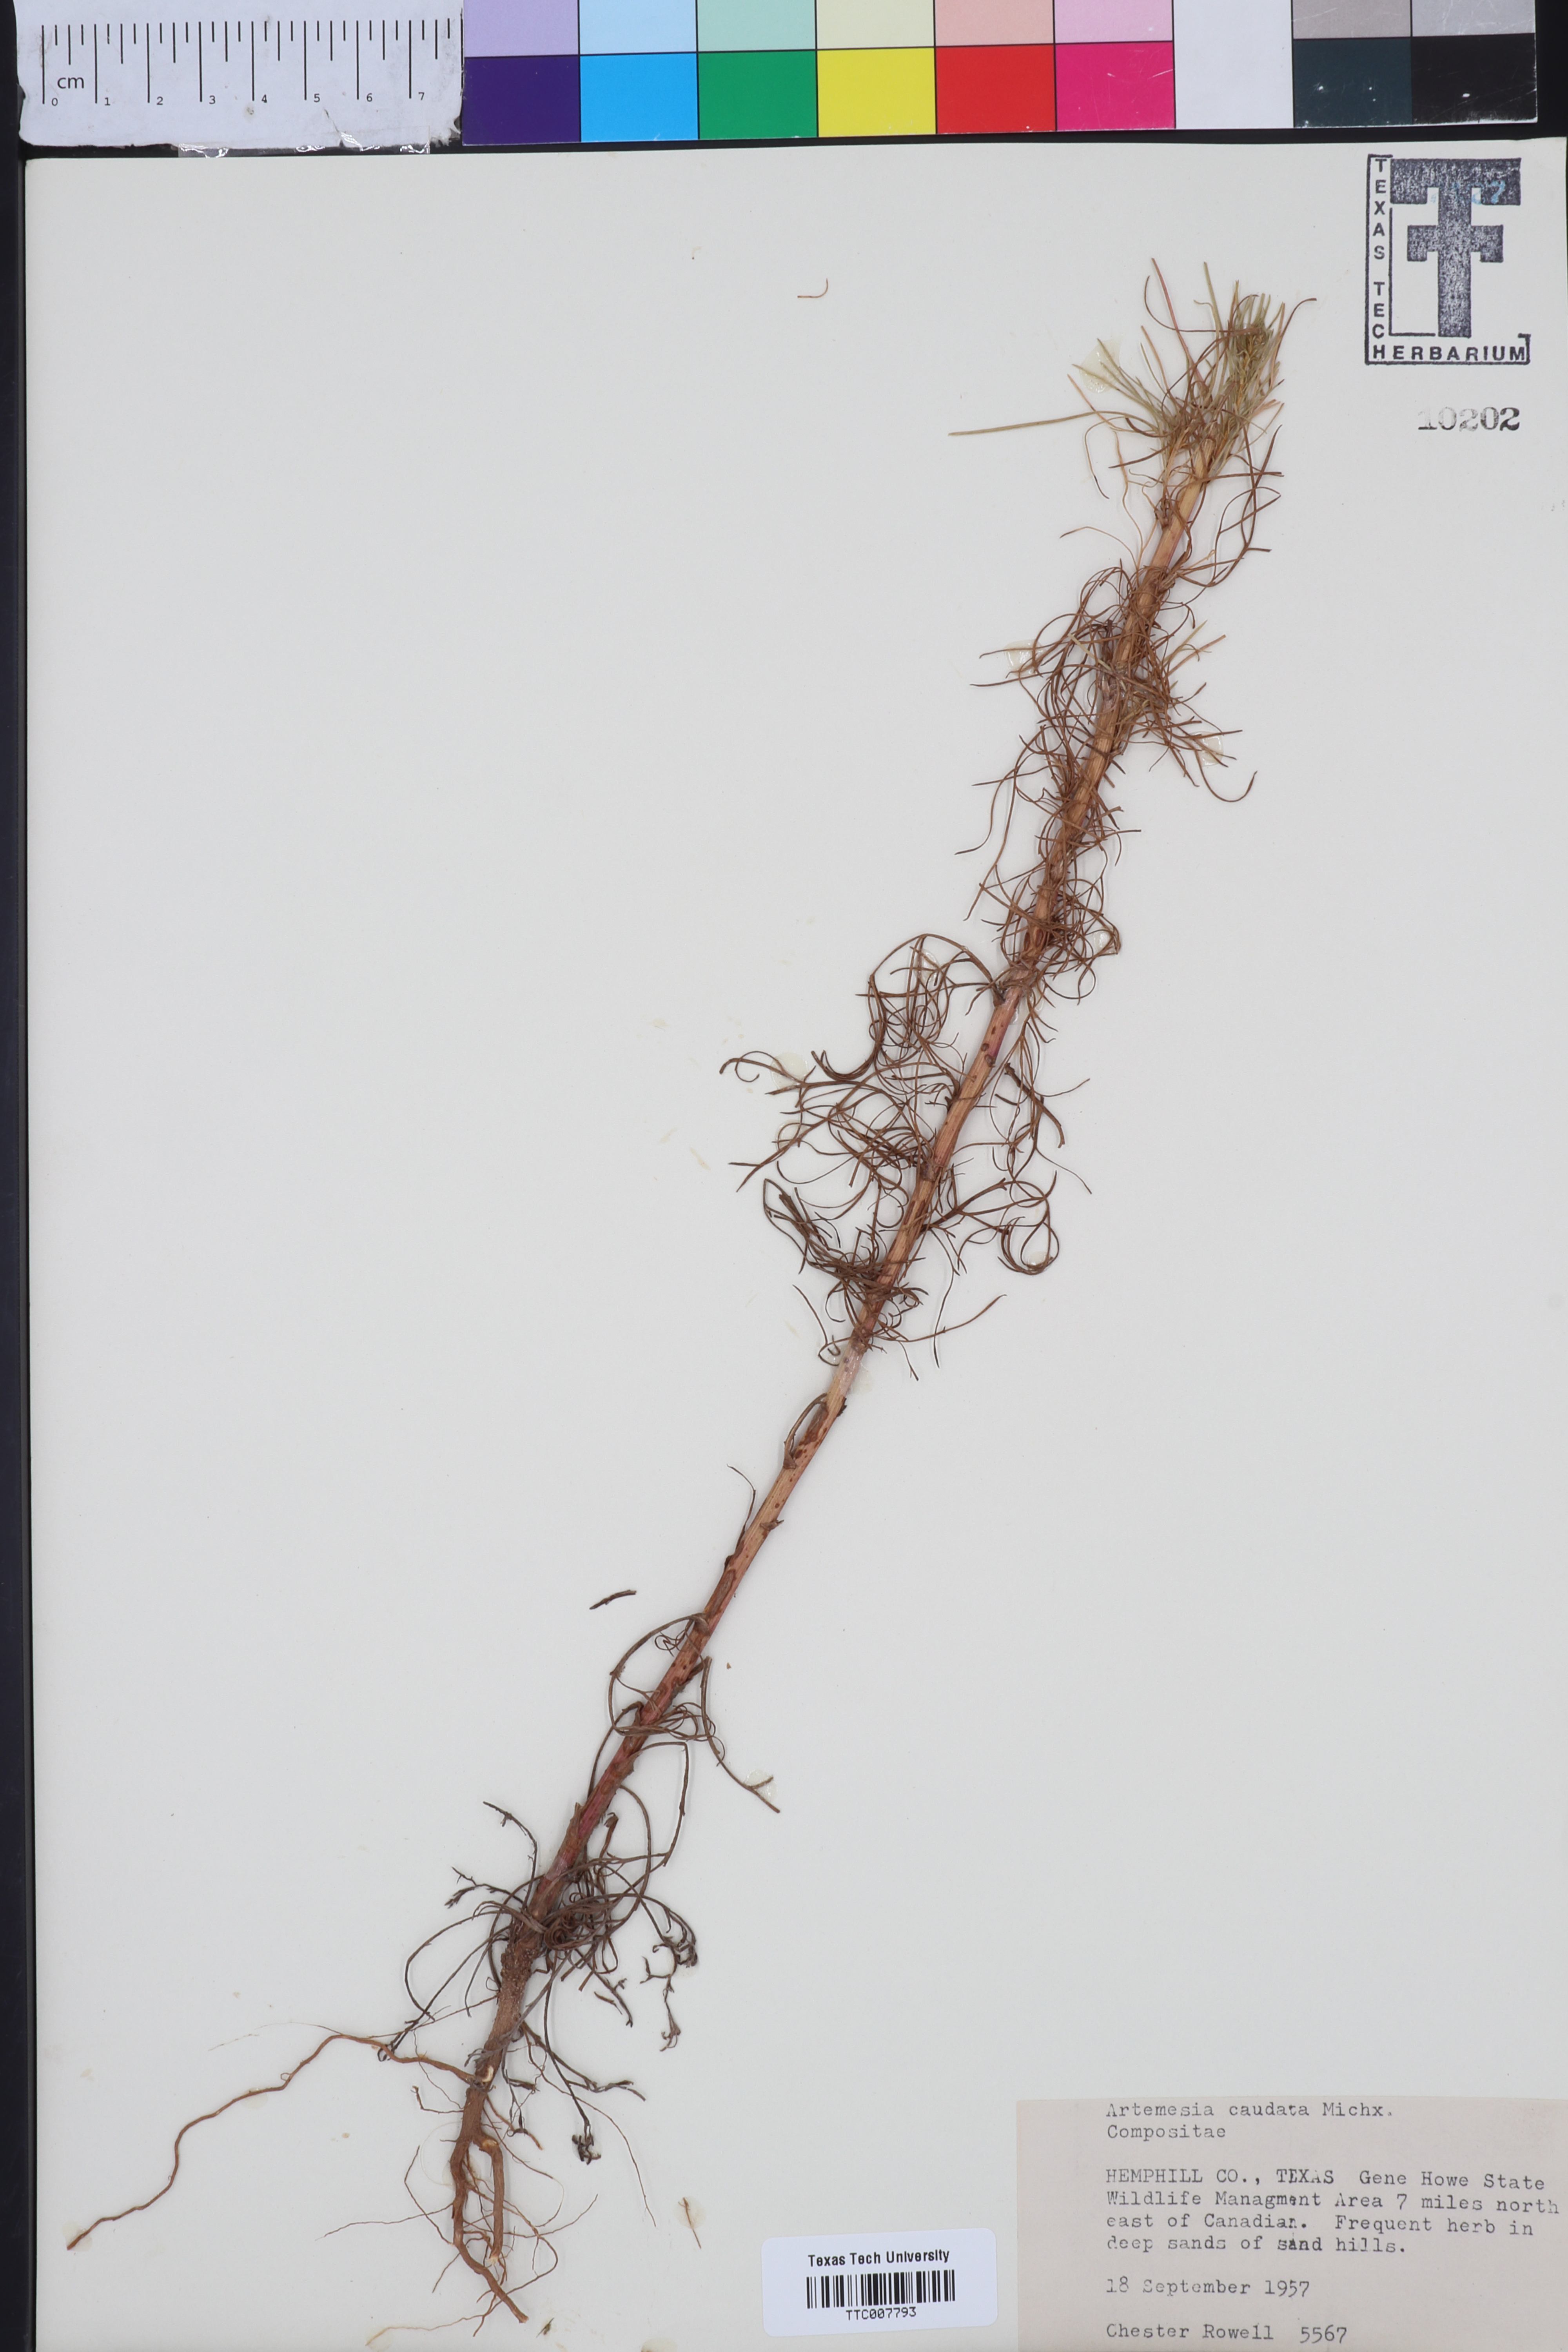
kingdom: Plantae
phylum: Tracheophyta
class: Magnoliopsida
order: Asterales
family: Asteraceae
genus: Artemisia
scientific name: Artemisia campestris
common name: Field wormwood
